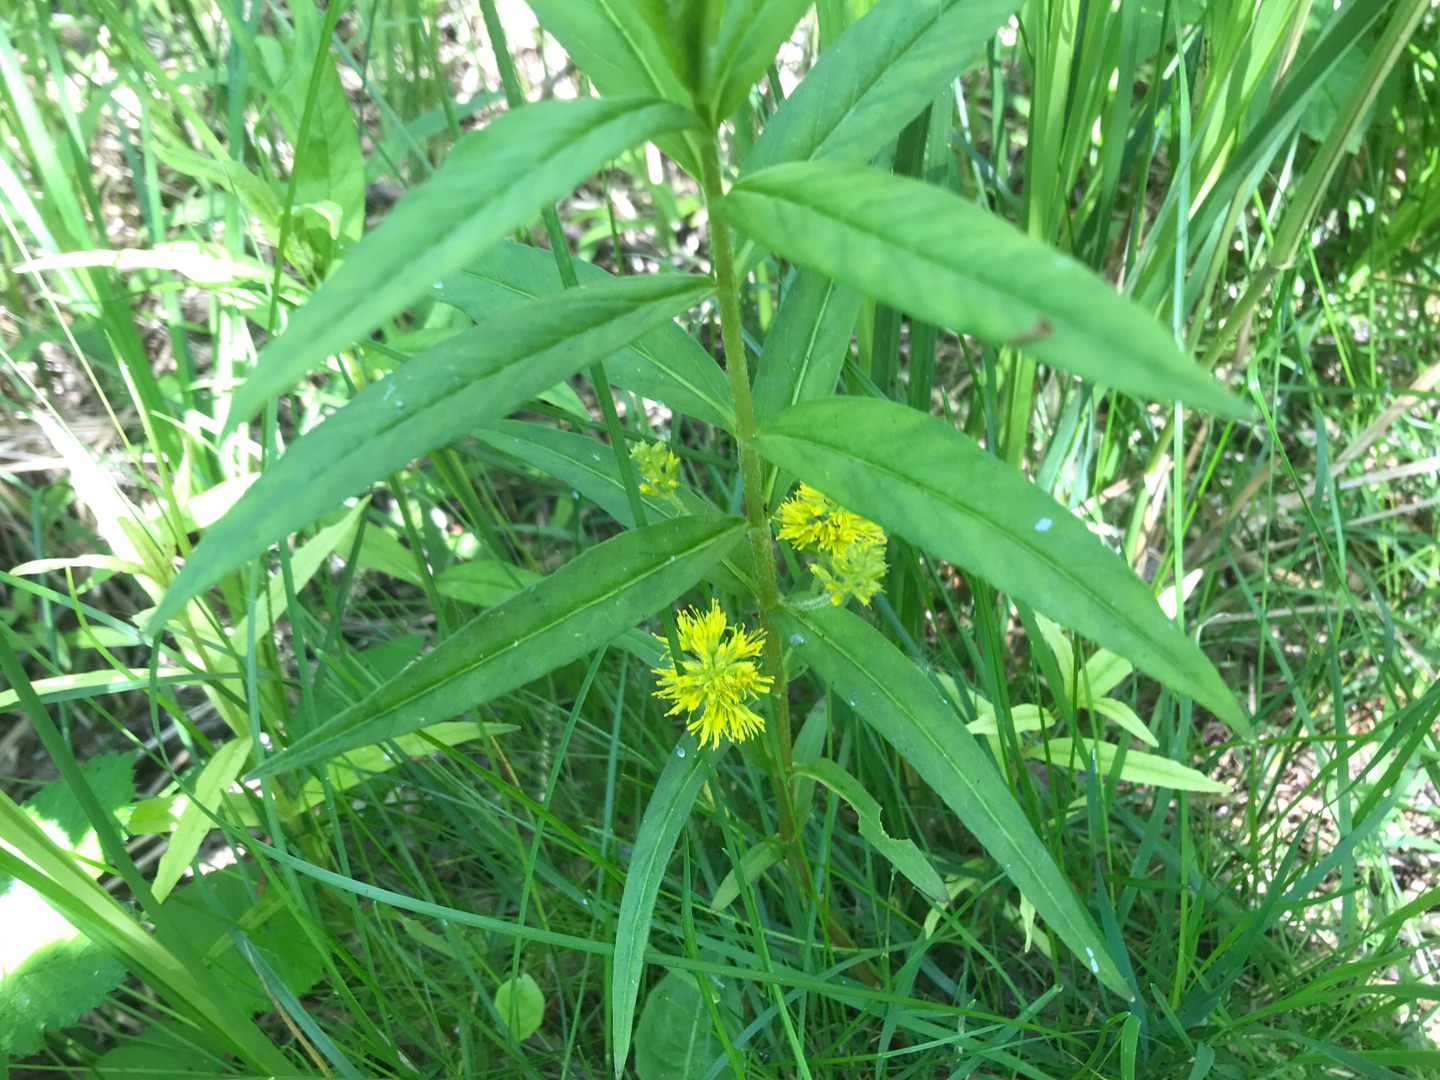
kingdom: Plantae
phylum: Tracheophyta
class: Magnoliopsida
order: Ericales
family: Primulaceae
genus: Lysimachia
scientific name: Lysimachia thyrsiflora
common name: Dusk-fredløs
